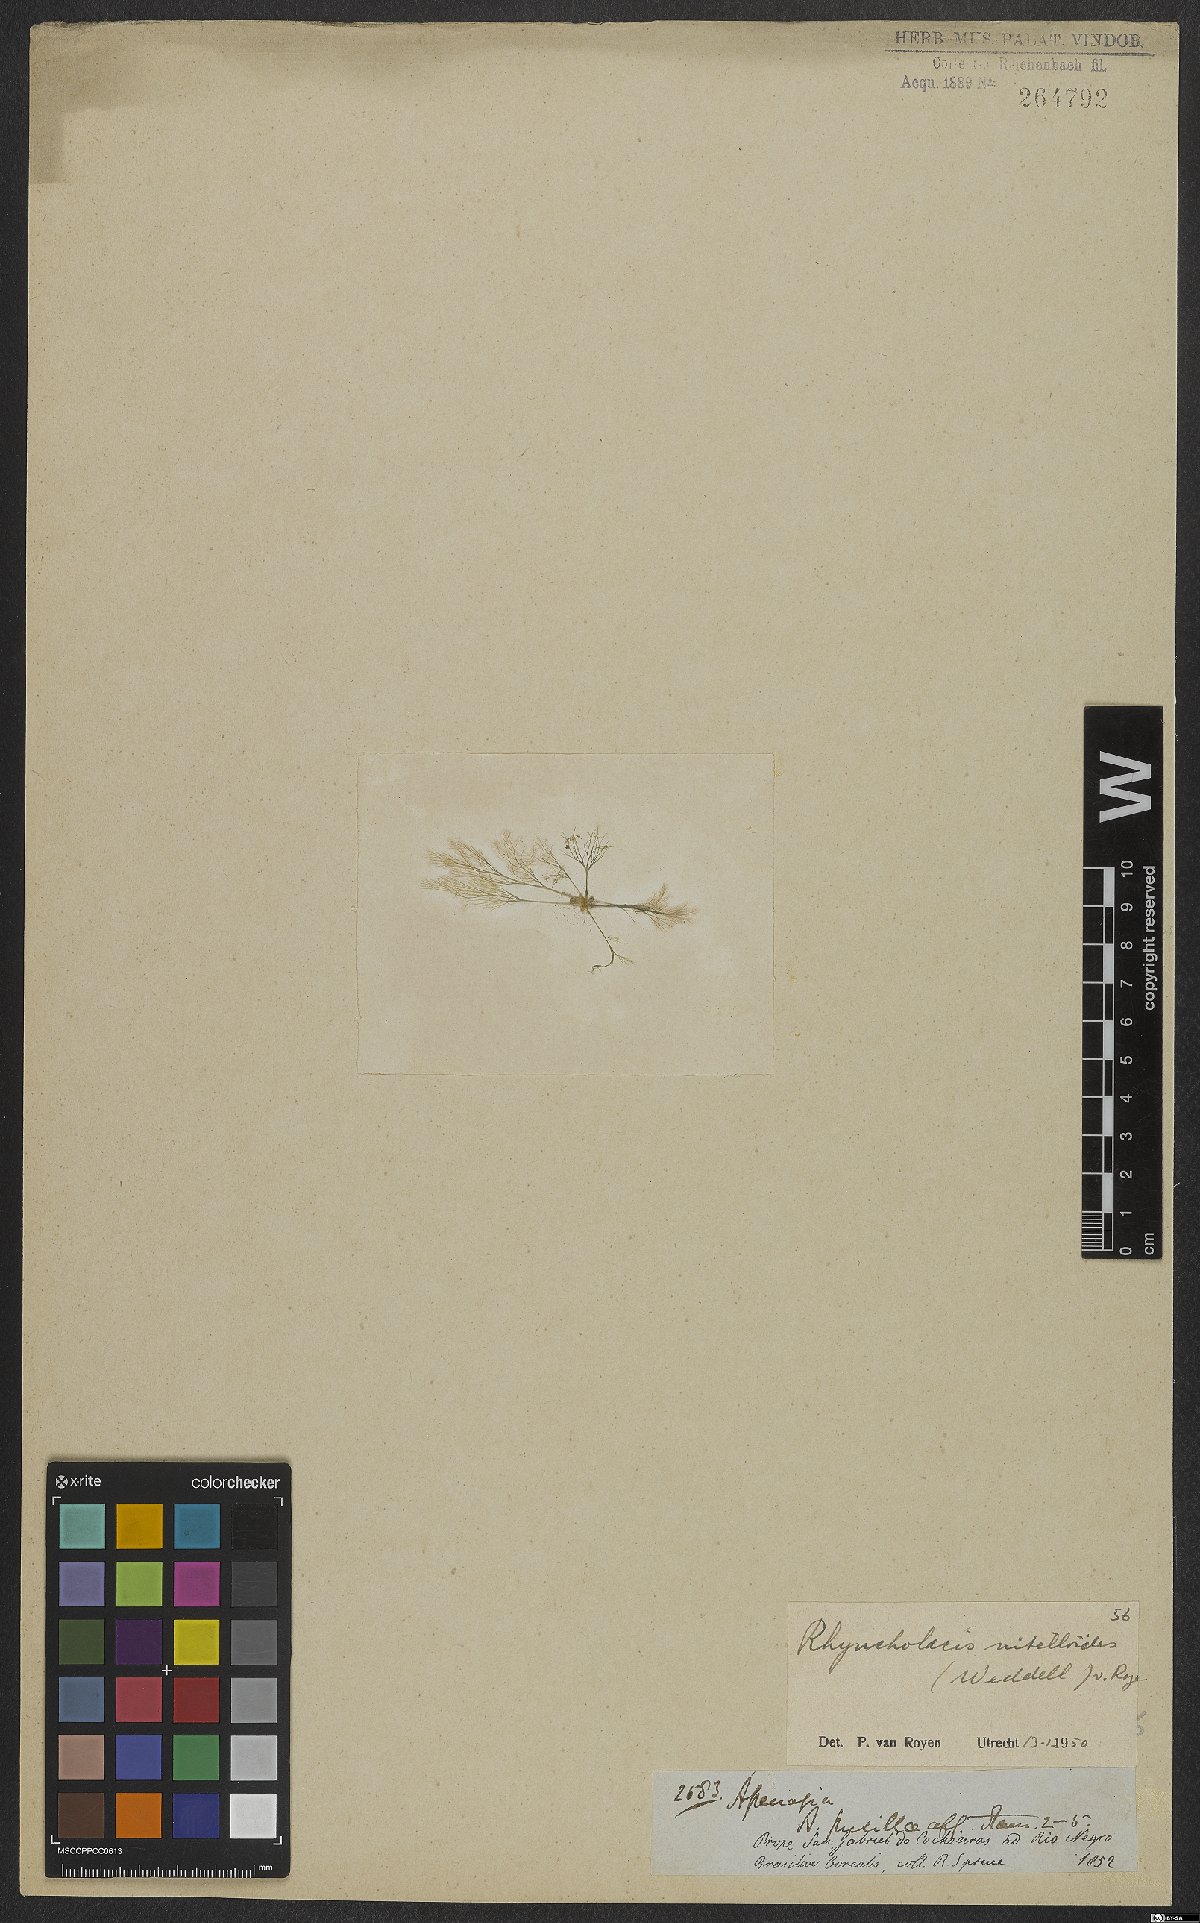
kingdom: Plantae
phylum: Tracheophyta
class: Magnoliopsida
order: Malpighiales
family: Podostemaceae
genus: Rhyncholacis
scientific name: Rhyncholacis nitelloides
